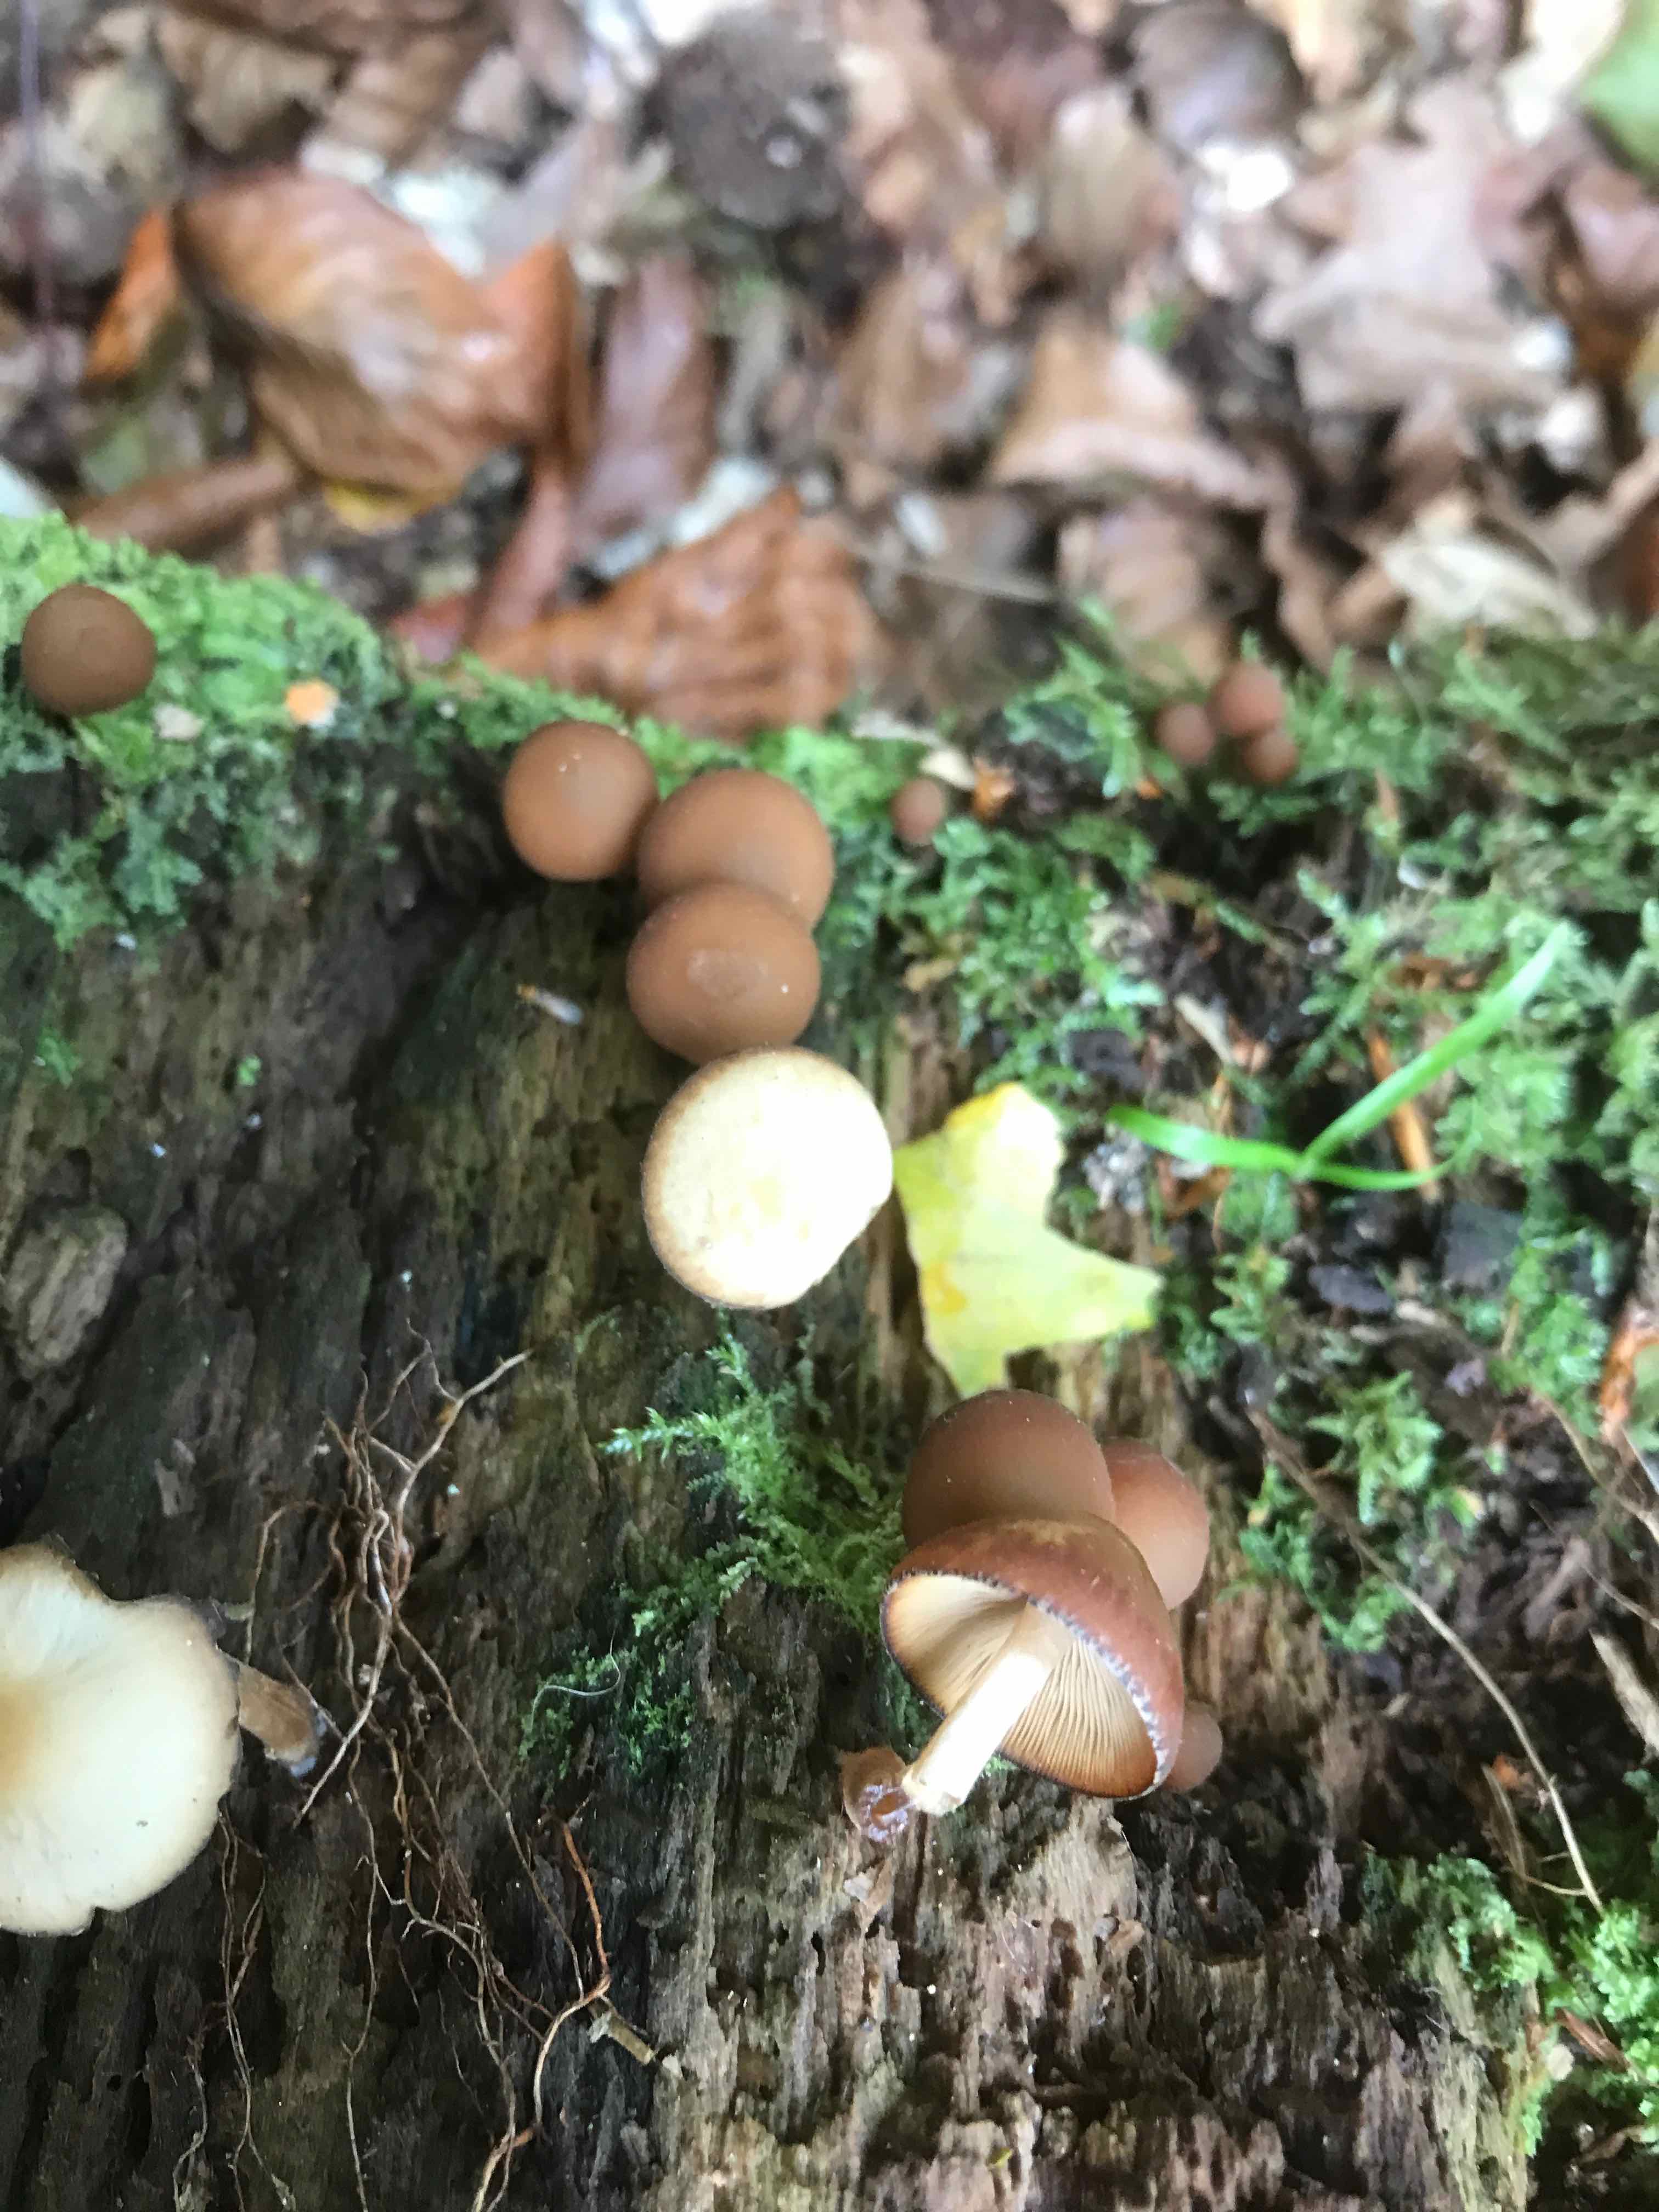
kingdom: Fungi
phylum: Basidiomycota
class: Agaricomycetes
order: Agaricales
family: Psathyrellaceae
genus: Psathyrella
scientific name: Psathyrella piluliformis
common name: lysstokket mørkhat
